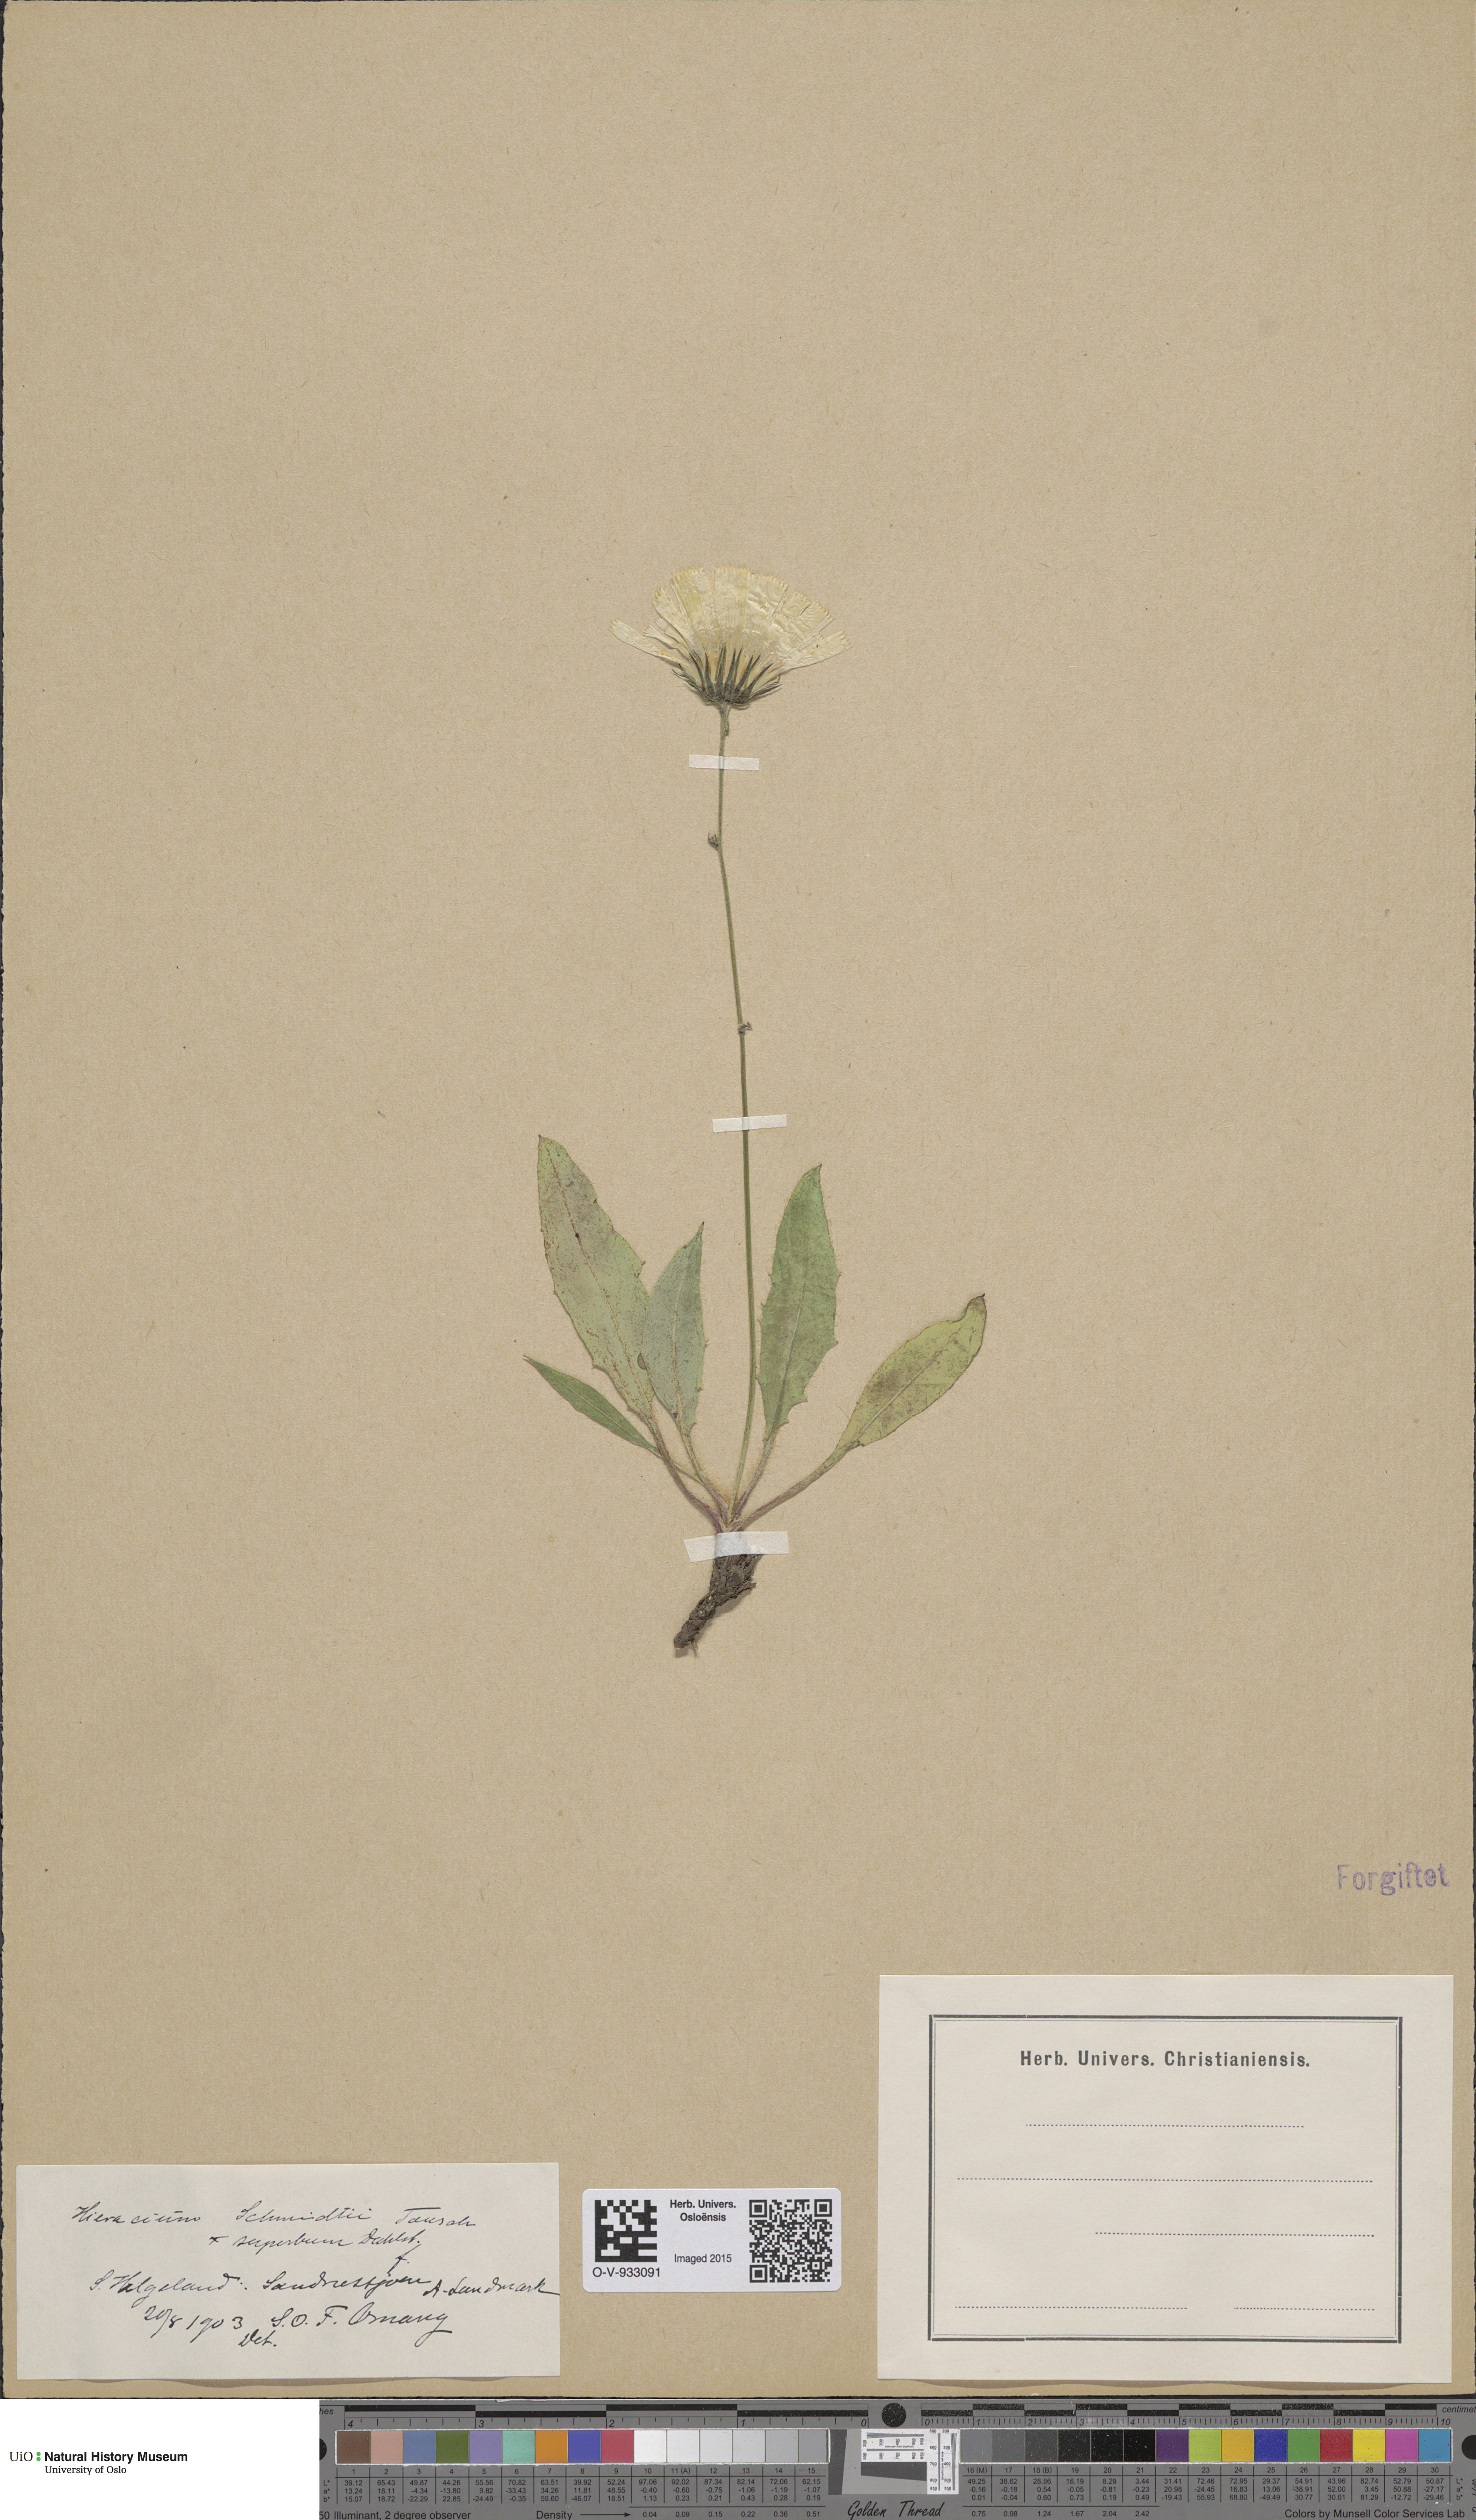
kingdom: Plantae
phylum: Tracheophyta
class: Magnoliopsida
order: Asterales
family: Asteraceae
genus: Hieracium
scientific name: Hieracium schmidtii
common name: Schmidt's hawkweed
